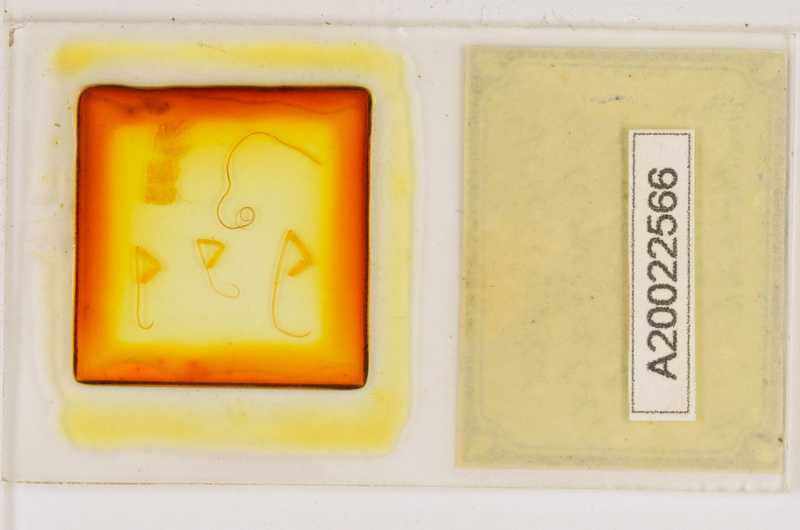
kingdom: Animalia
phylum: Arthropoda
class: Chilopoda
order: Scutigeromorpha
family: Scutigeridae
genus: Scutigera
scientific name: Scutigera coleoptrata
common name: House centipede
